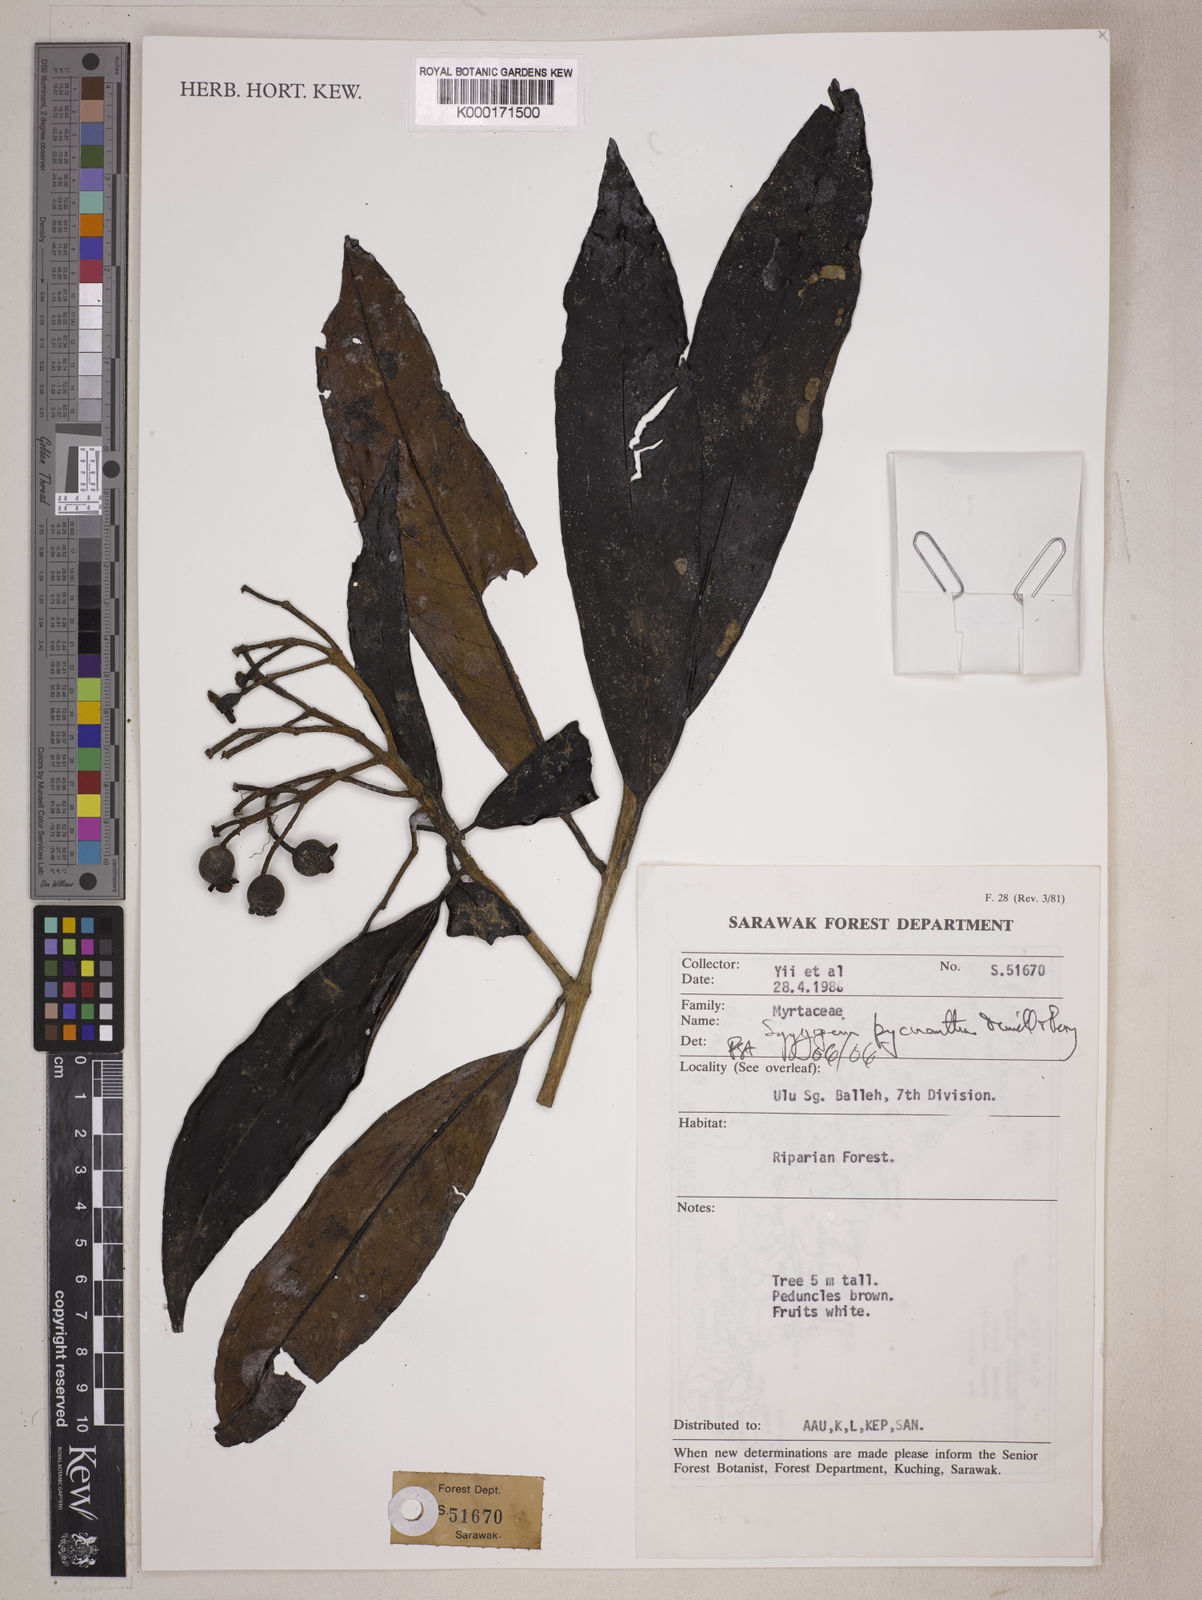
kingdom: Plantae
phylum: Tracheophyta
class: Magnoliopsida
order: Myrtales
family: Myrtaceae
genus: Syzygium
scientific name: Syzygium
